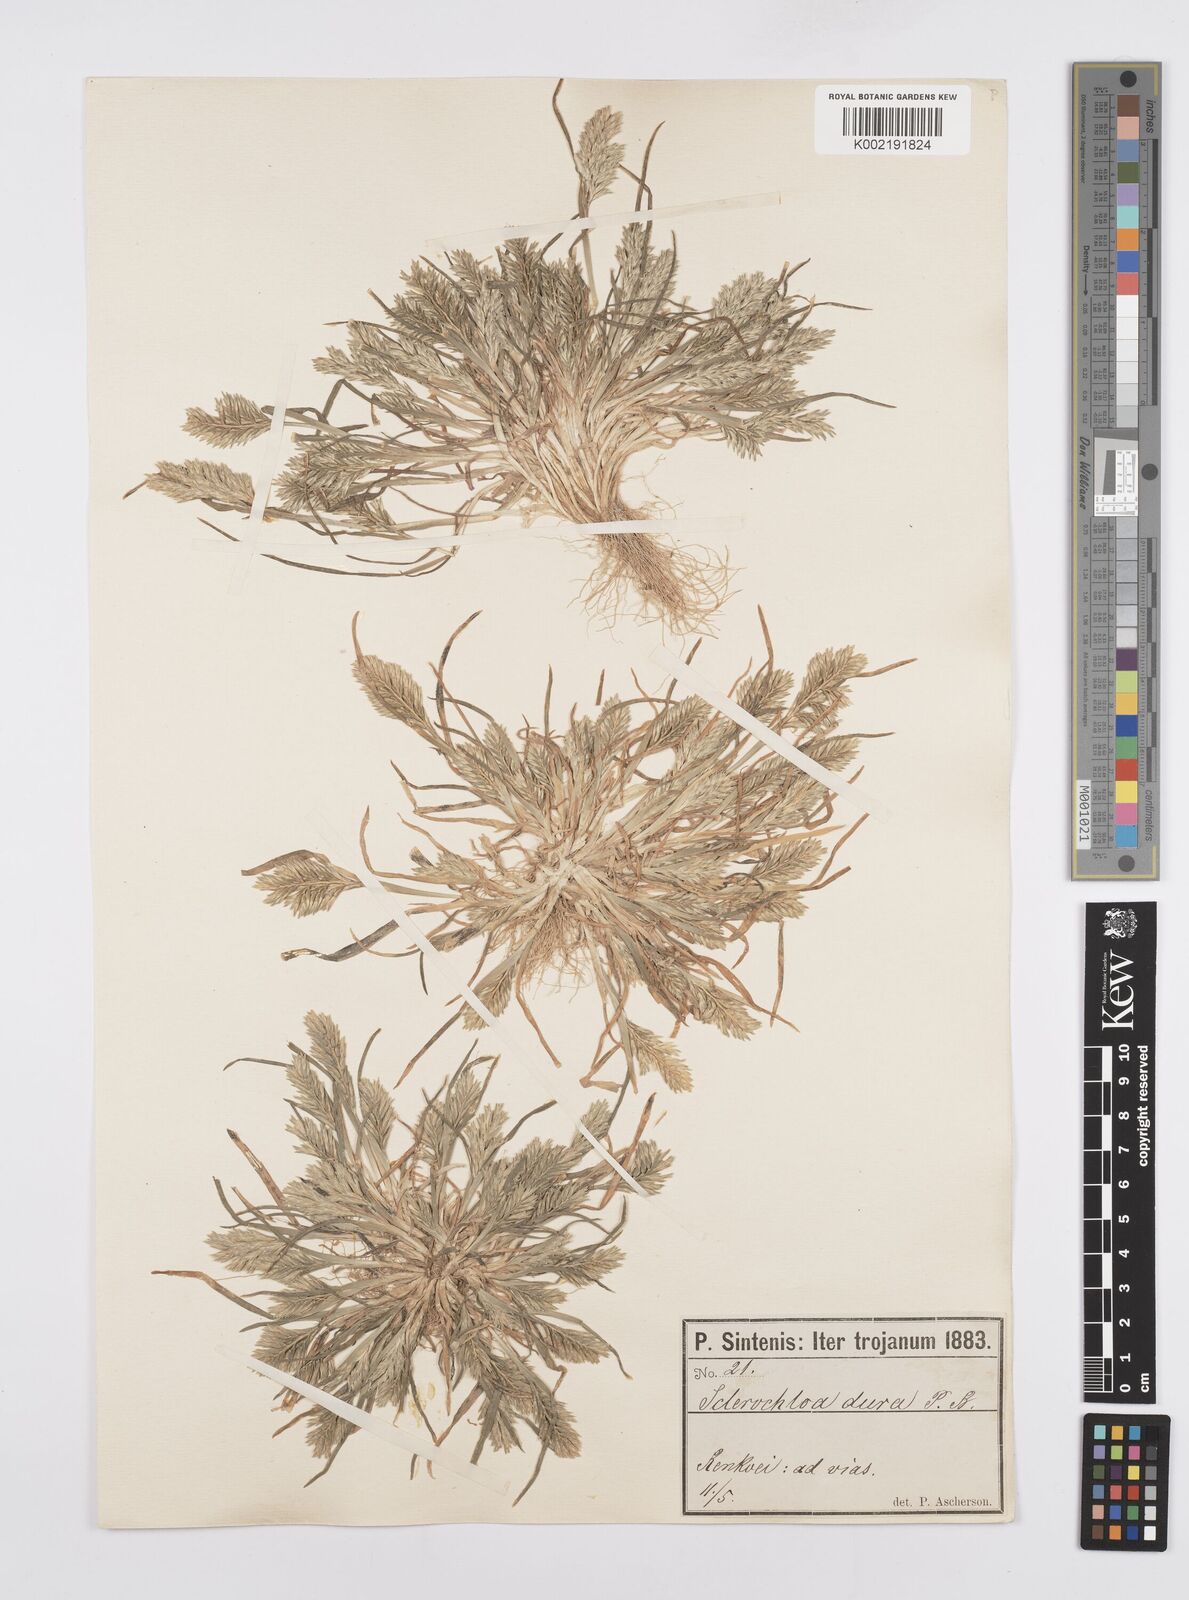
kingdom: Plantae
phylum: Tracheophyta
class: Liliopsida
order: Poales
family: Poaceae
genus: Sclerochloa
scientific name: Sclerochloa dura
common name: Common hardgrass
